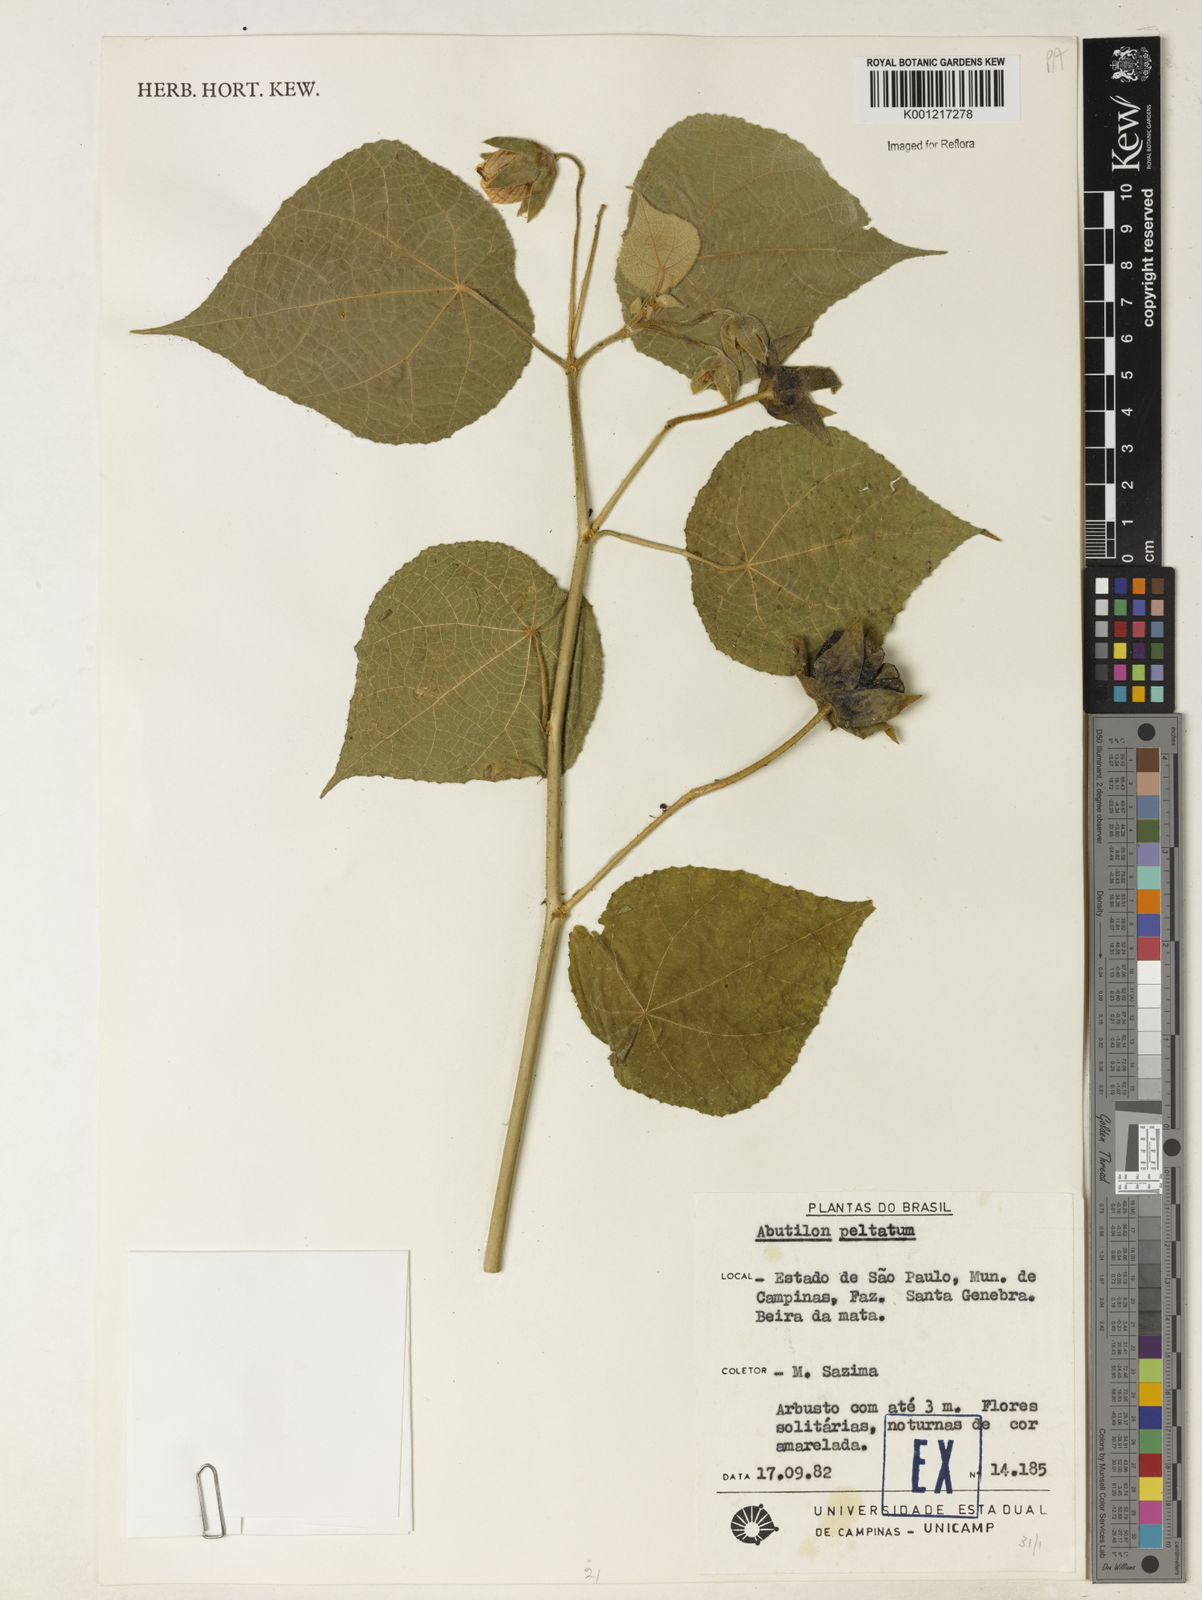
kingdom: Plantae
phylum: Tracheophyta
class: Magnoliopsida
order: Malvales
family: Malvaceae
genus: Callianthe
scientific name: Callianthe fluviatilis
